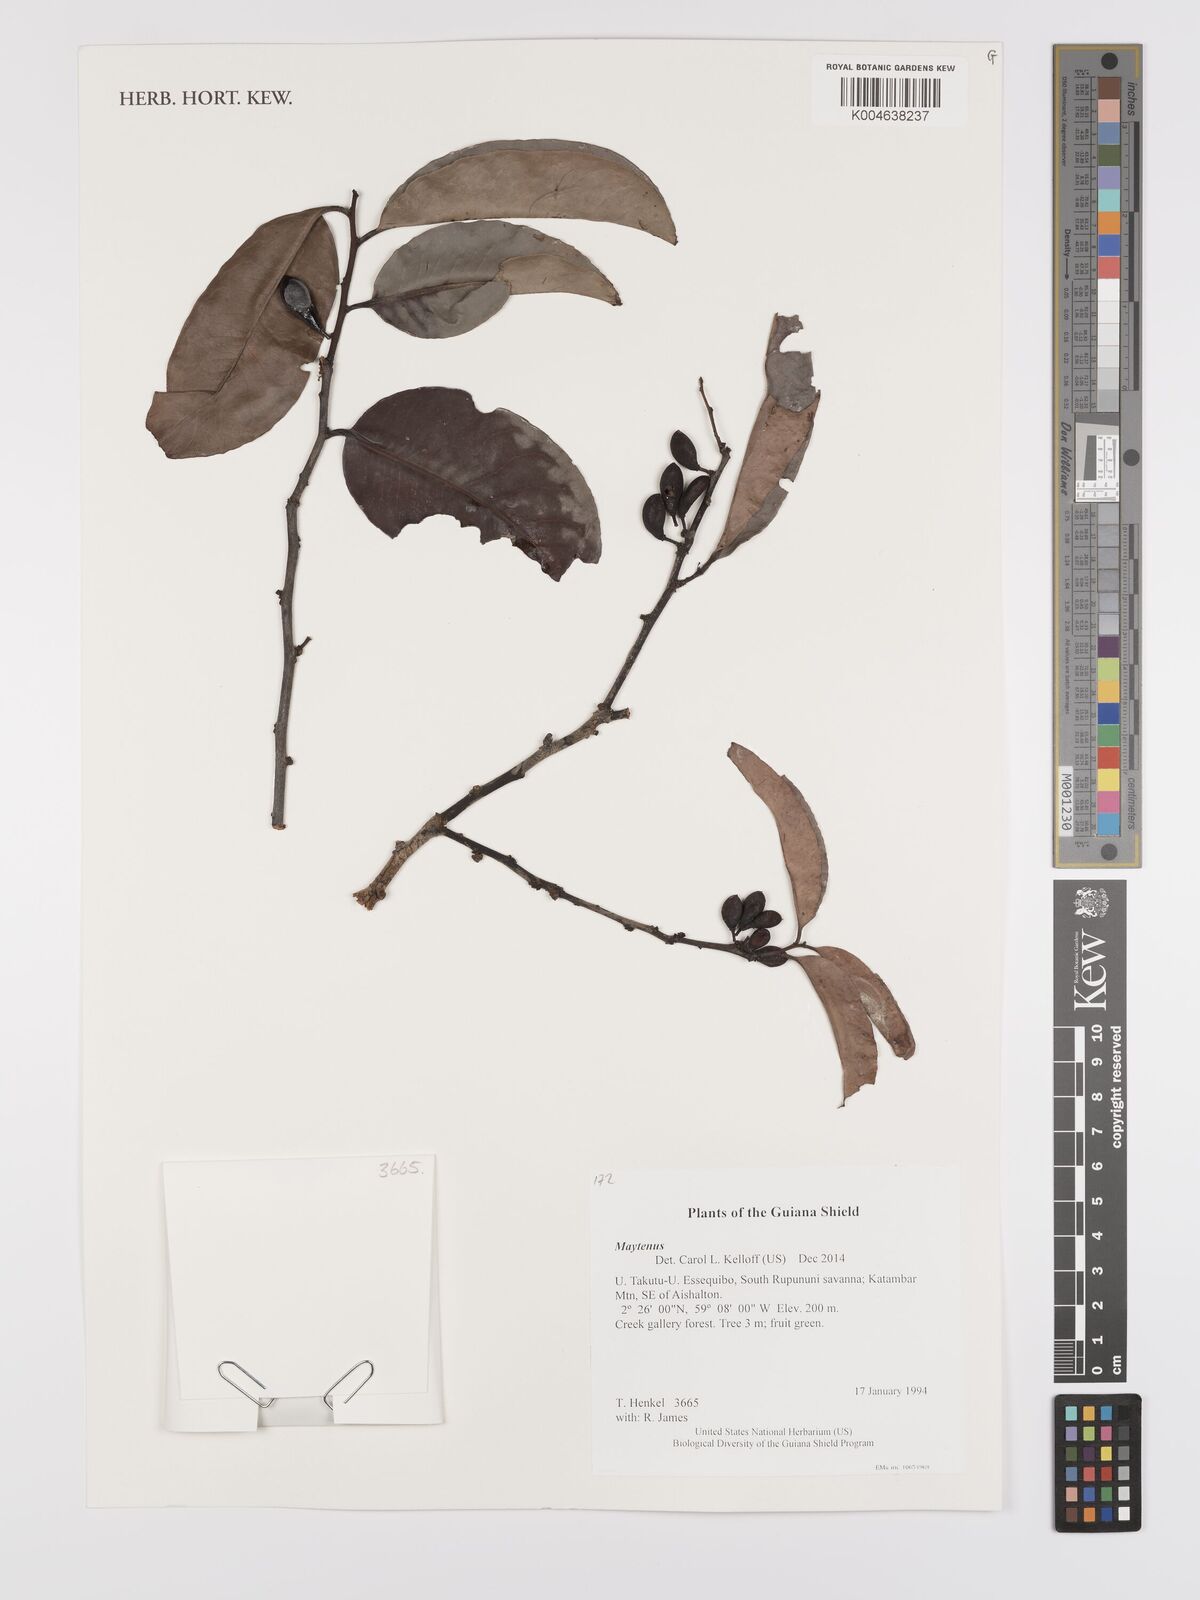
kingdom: Plantae
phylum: Tracheophyta
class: Magnoliopsida
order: Celastrales
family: Celastraceae
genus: Maytenus
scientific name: Maytenus
